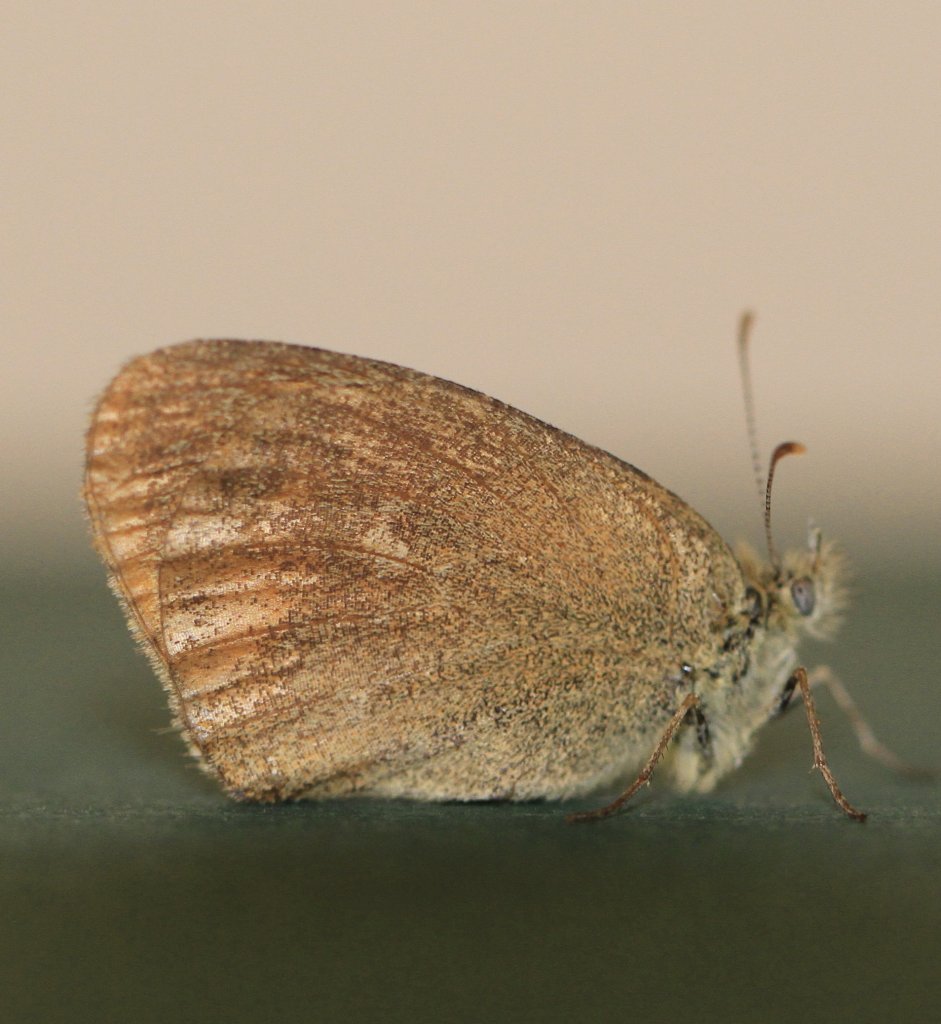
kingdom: Animalia
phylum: Arthropoda
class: Insecta
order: Lepidoptera
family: Nymphalidae
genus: Coenonympha
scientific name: Coenonympha tullia
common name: Large Heath
